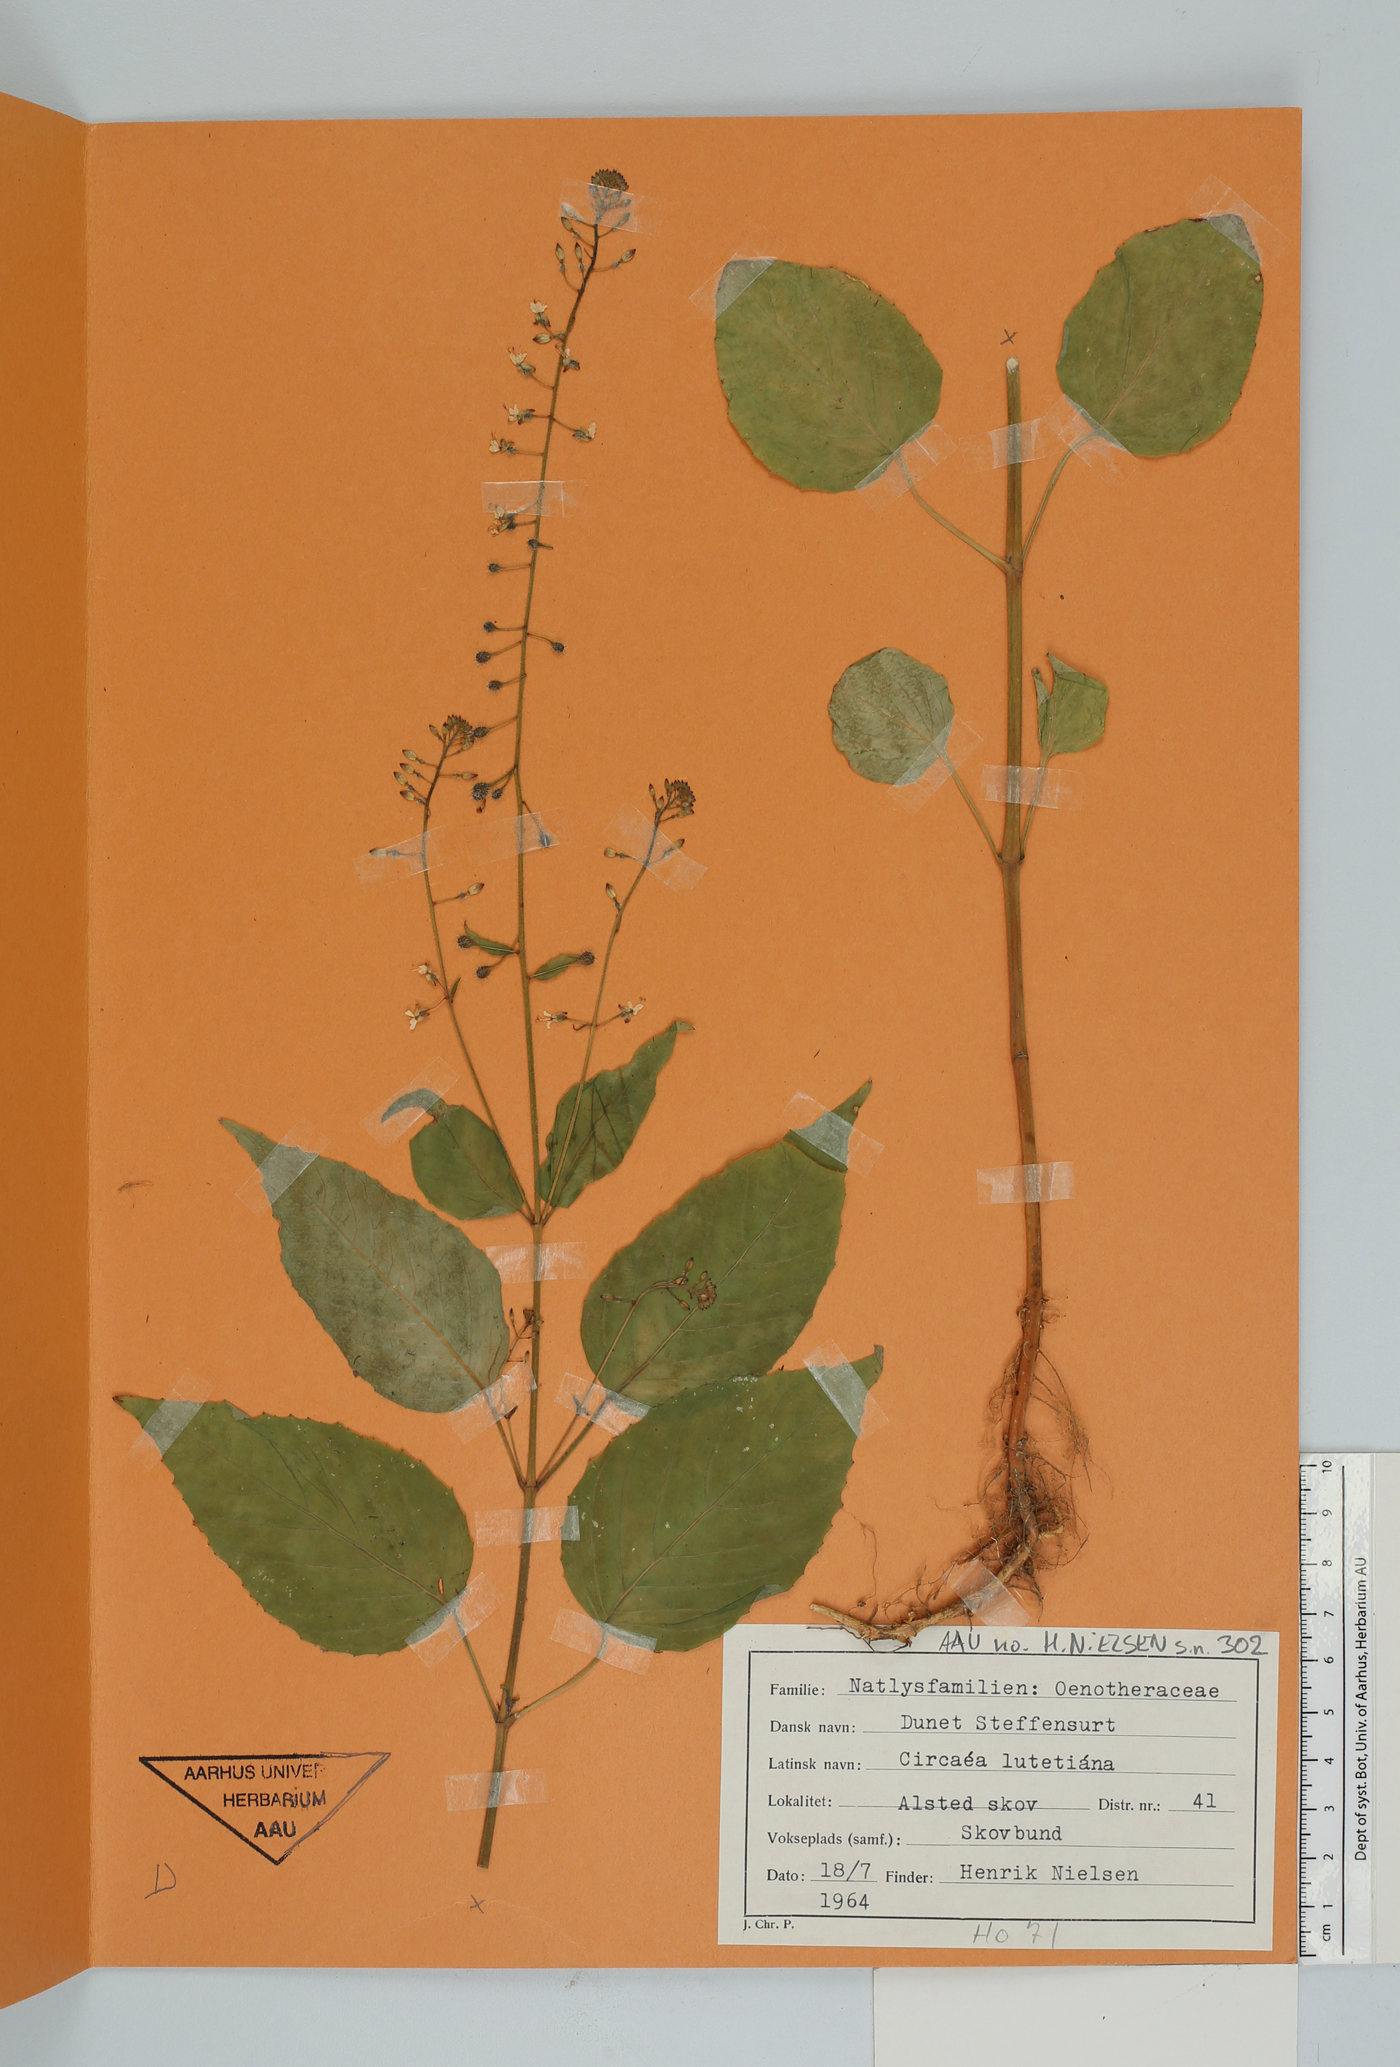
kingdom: Plantae
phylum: Tracheophyta
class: Magnoliopsida
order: Myrtales
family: Onagraceae
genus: Circaea
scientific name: Circaea lutetiana
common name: Enchanter's-nightshade
